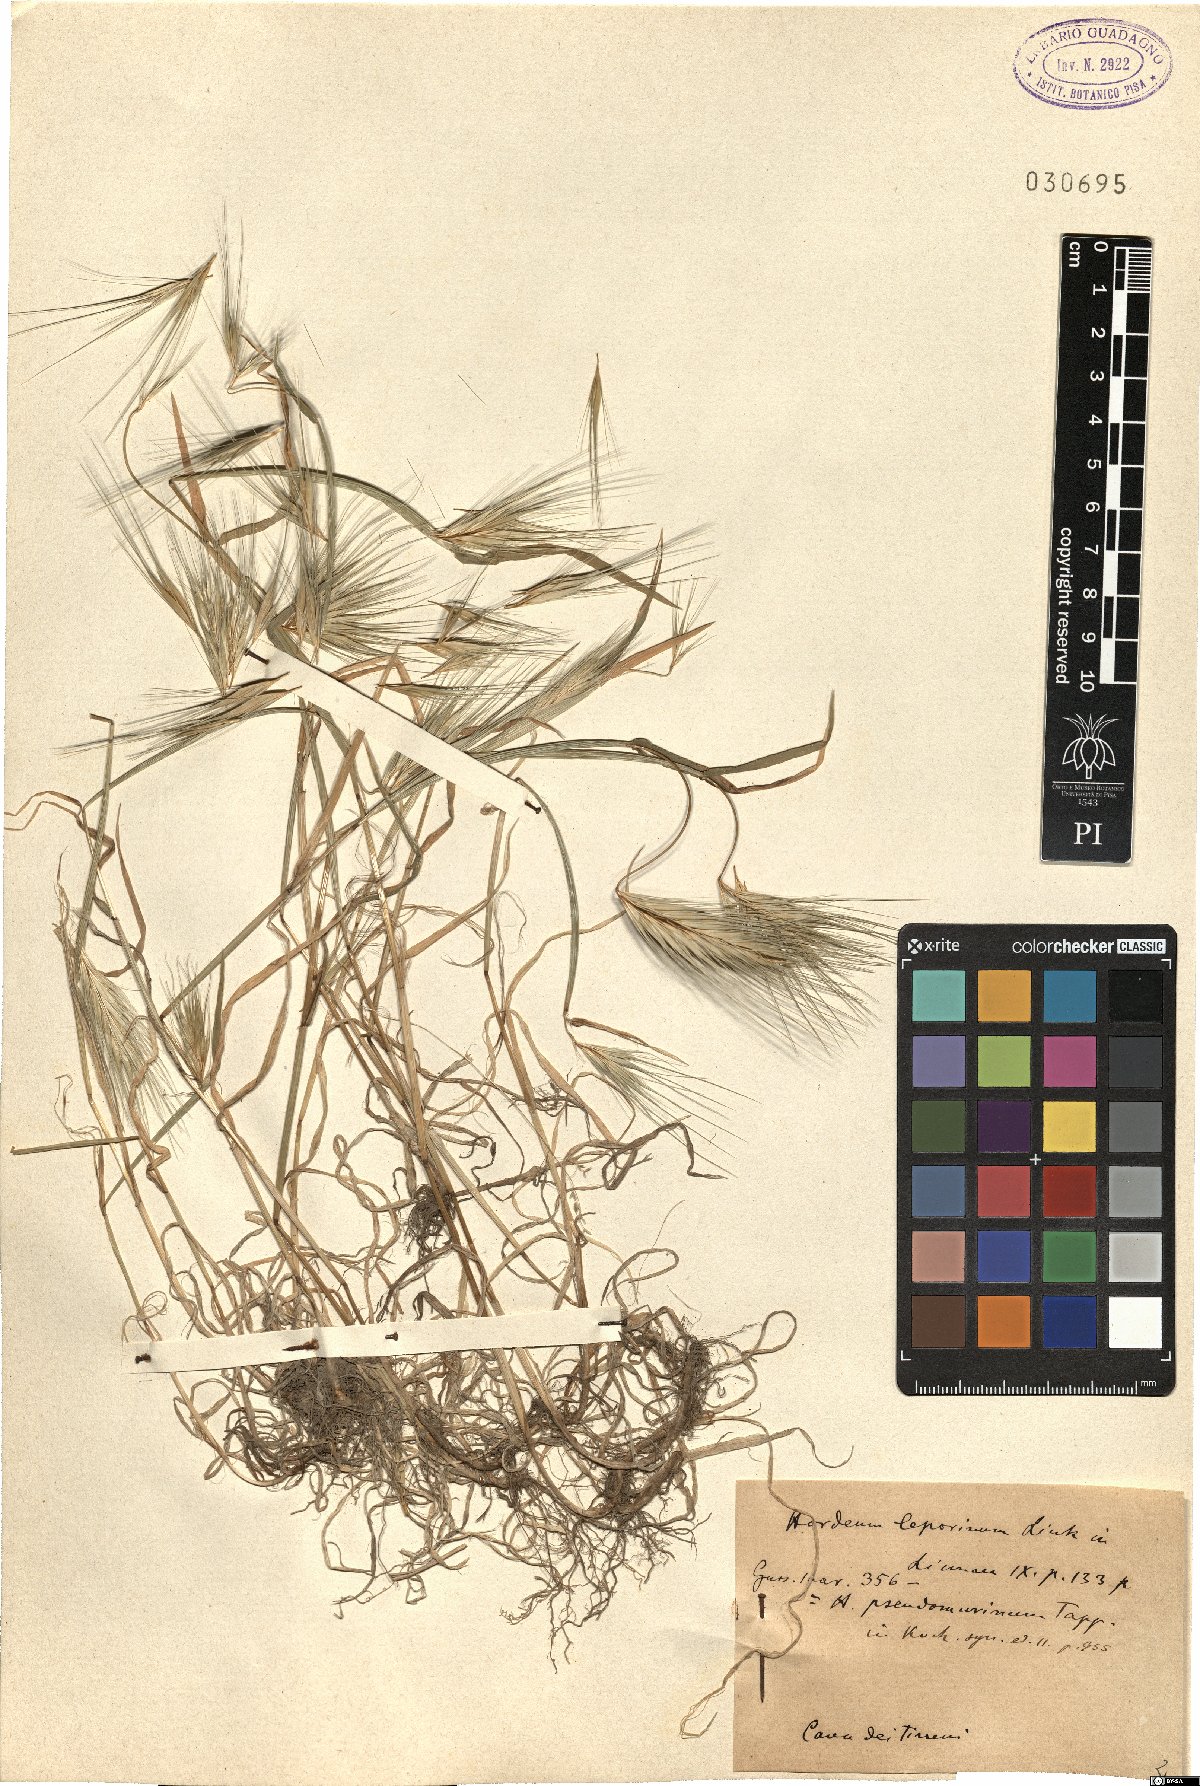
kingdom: Plantae
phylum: Tracheophyta
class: Liliopsida
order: Poales
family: Poaceae
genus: Hordeum
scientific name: Hordeum murinum
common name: Wall barley
